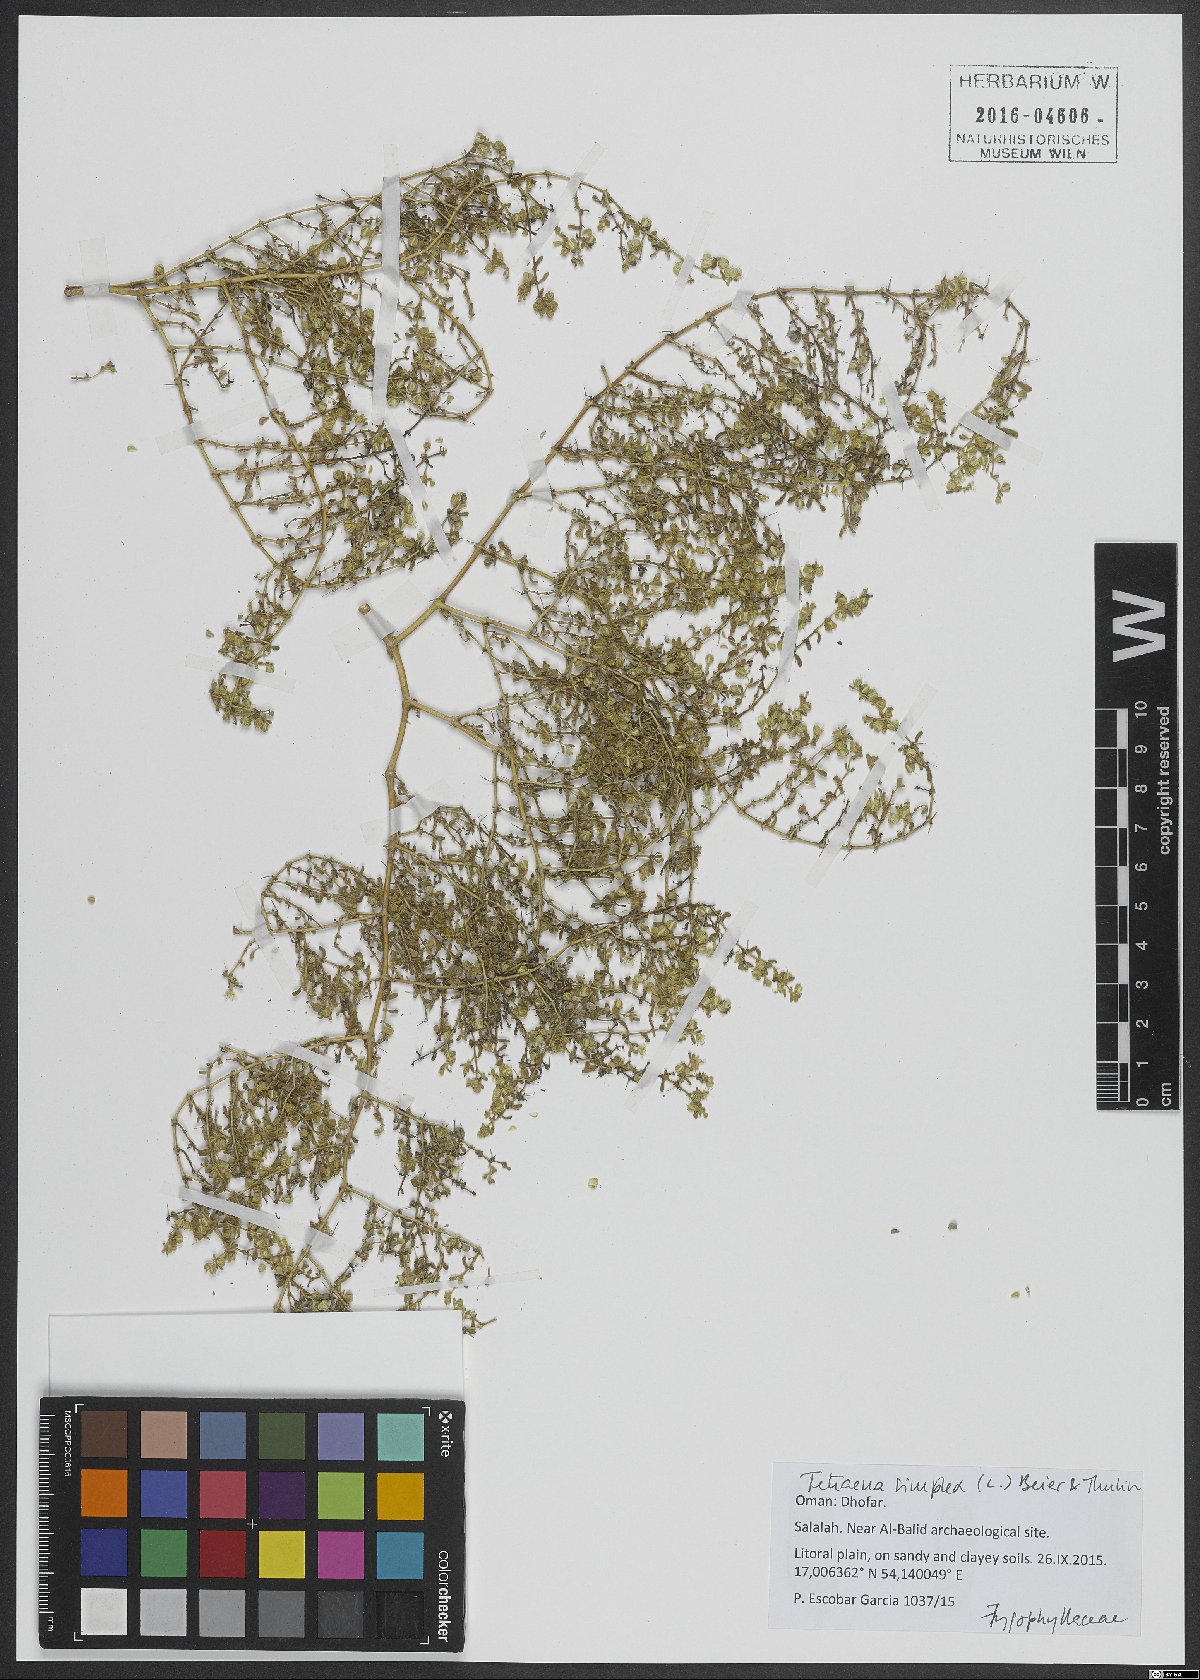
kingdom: Plantae
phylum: Tracheophyta
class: Magnoliopsida
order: Zygophyllales
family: Zygophyllaceae
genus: Tetraena
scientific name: Tetraena simplex
